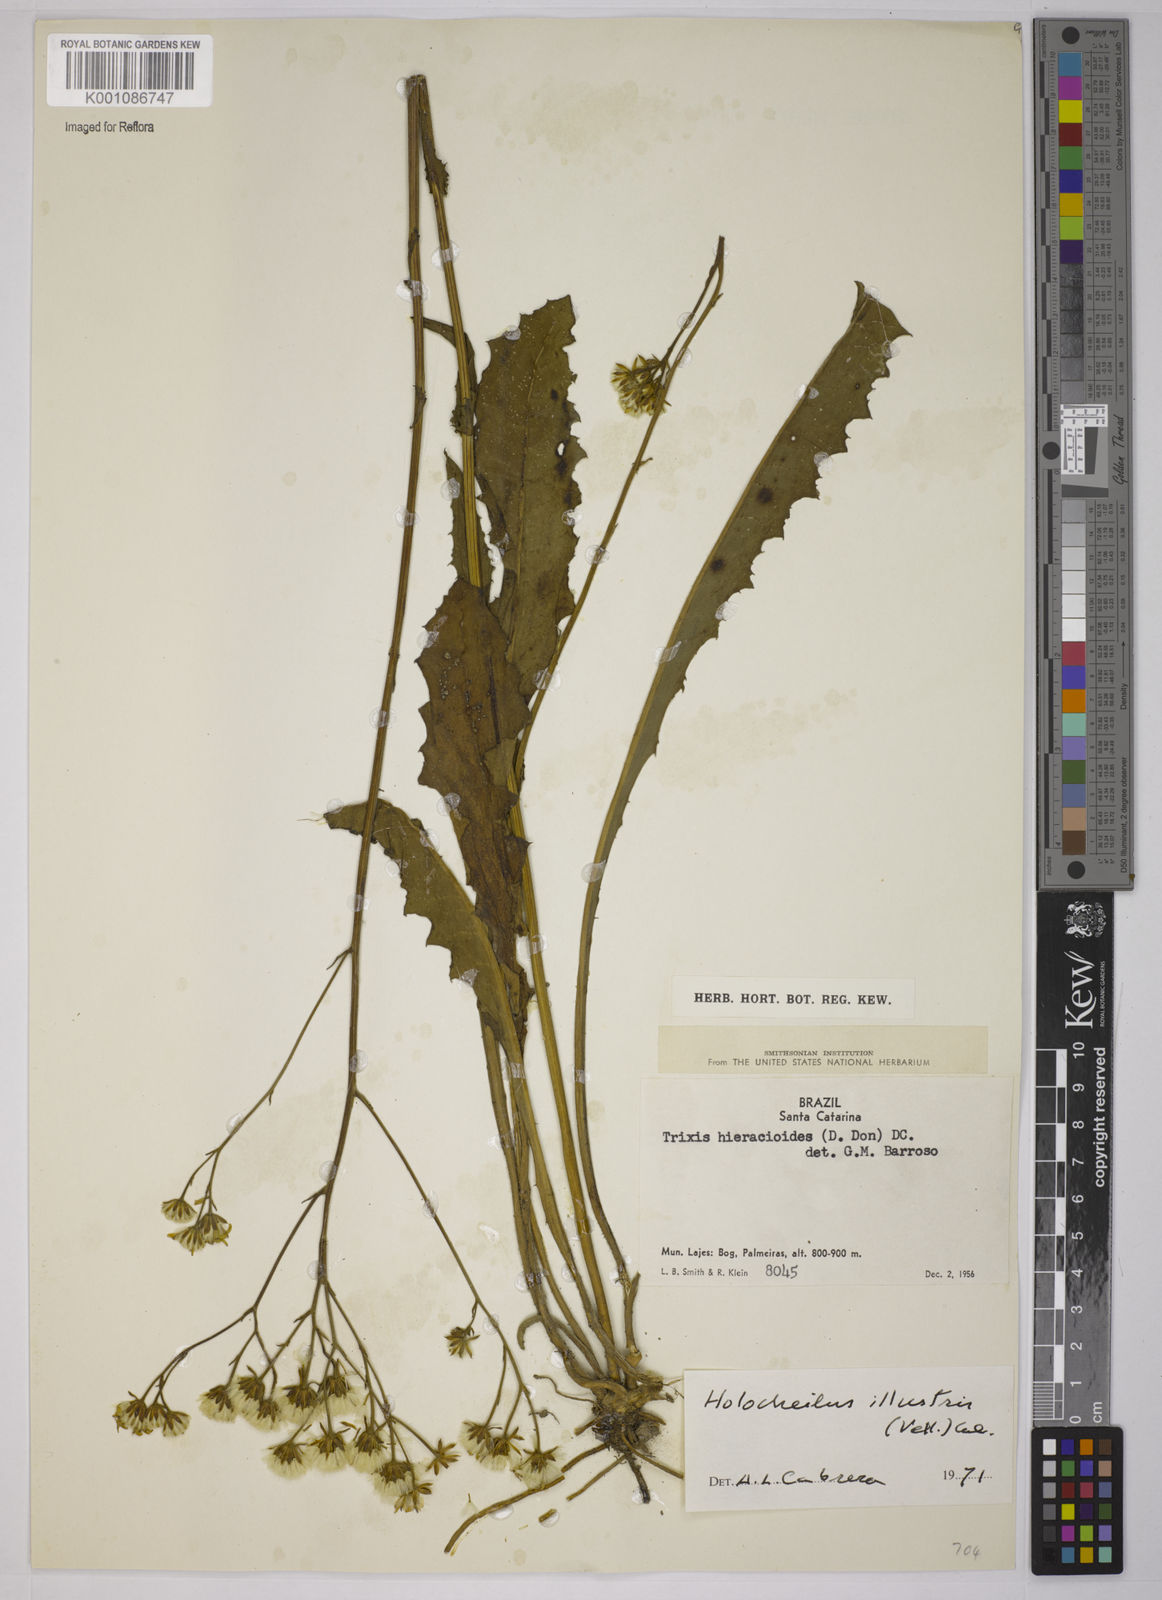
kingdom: Plantae
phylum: Tracheophyta
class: Magnoliopsida
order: Asterales
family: Asteraceae
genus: Holocheilus
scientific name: Holocheilus illustris
